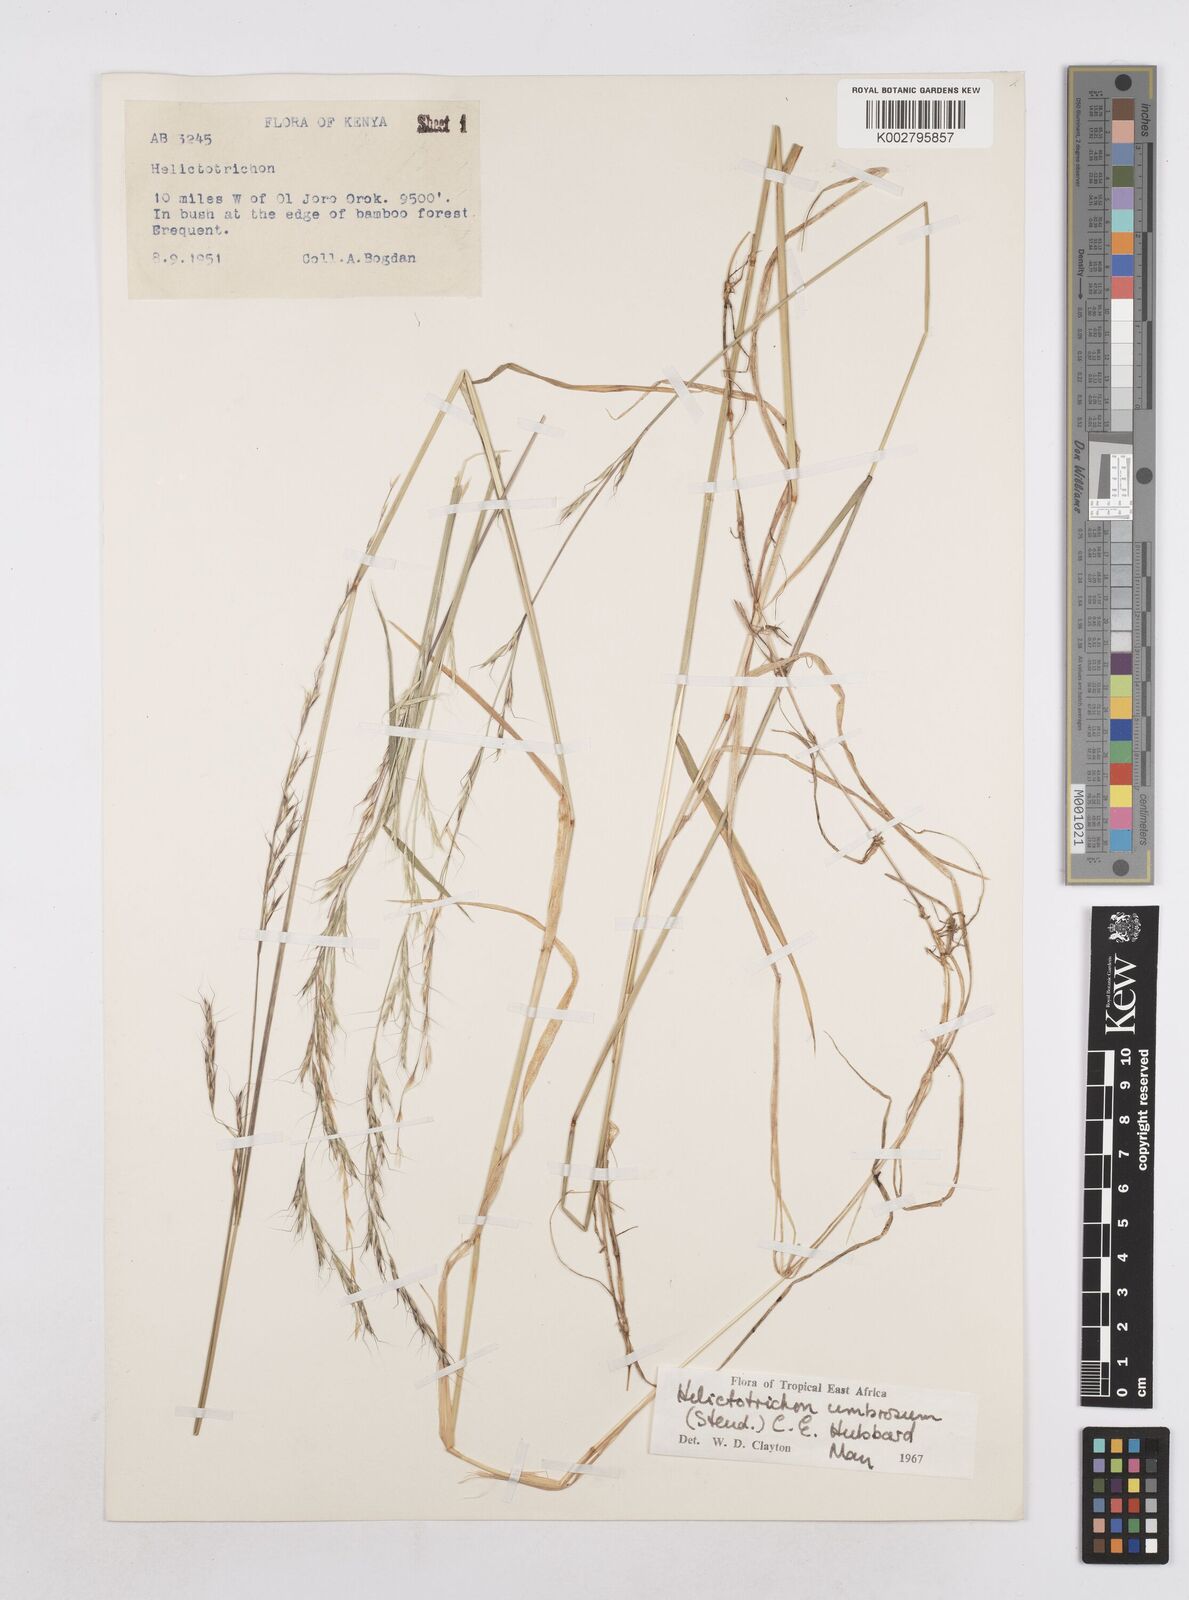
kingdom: Plantae
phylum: Tracheophyta
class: Liliopsida
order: Poales
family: Poaceae
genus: Trisetopsis
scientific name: Trisetopsis umbrosa
